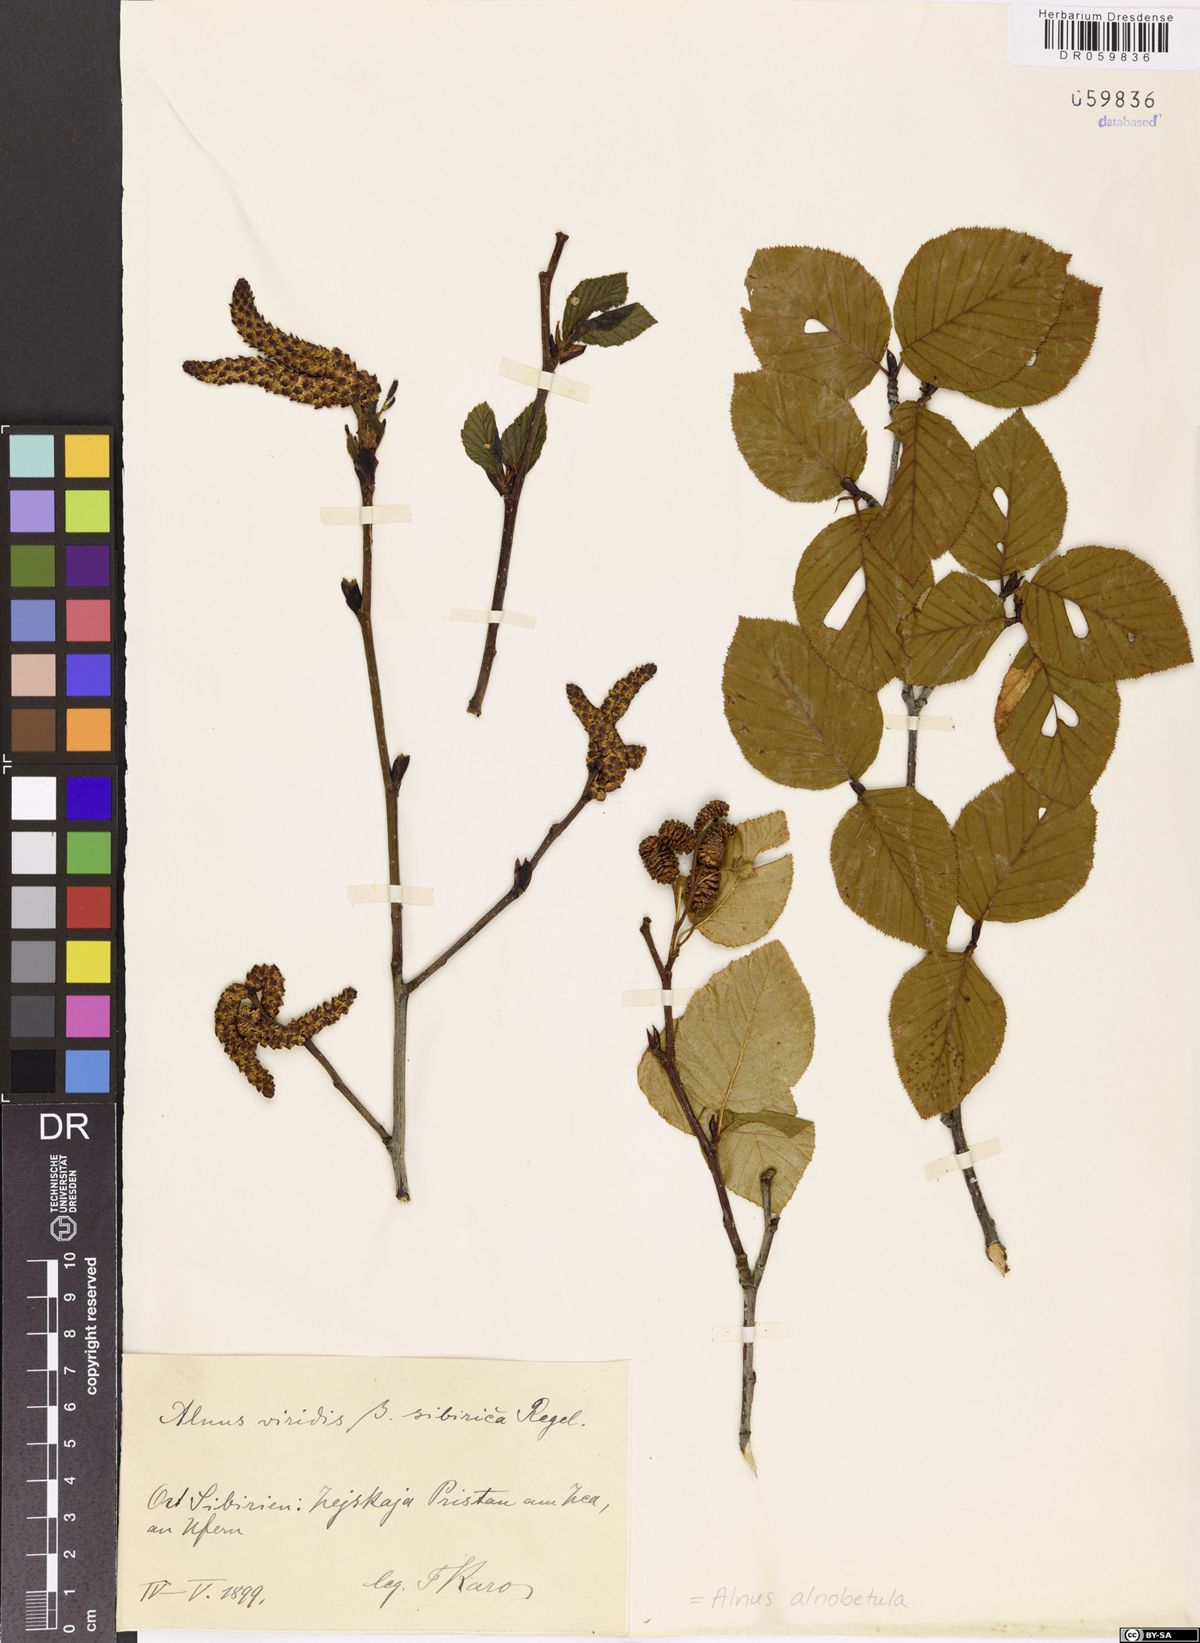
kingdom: Plantae
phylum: Tracheophyta
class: Magnoliopsida
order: Fagales
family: Betulaceae
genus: Alnus
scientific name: Alnus alnobetula
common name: Green alder
